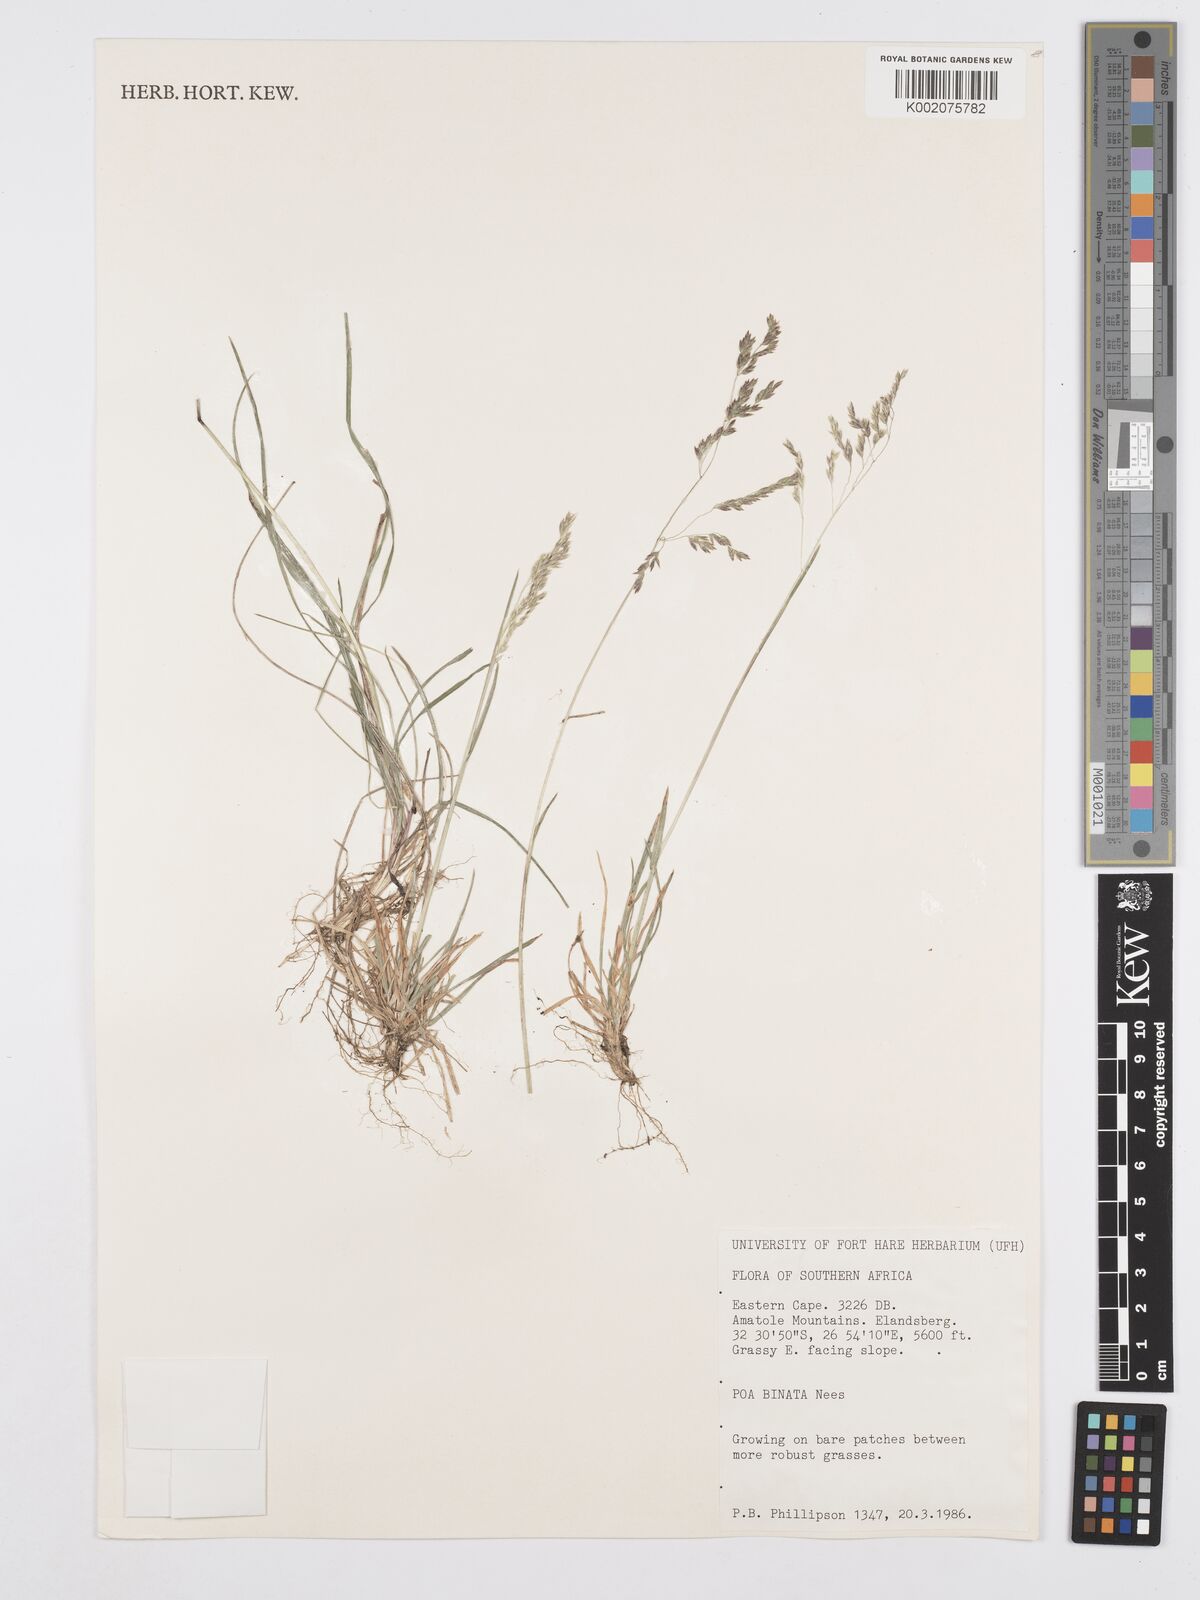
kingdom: Plantae
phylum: Tracheophyta
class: Liliopsida
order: Poales
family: Poaceae
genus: Poa
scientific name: Poa binata
